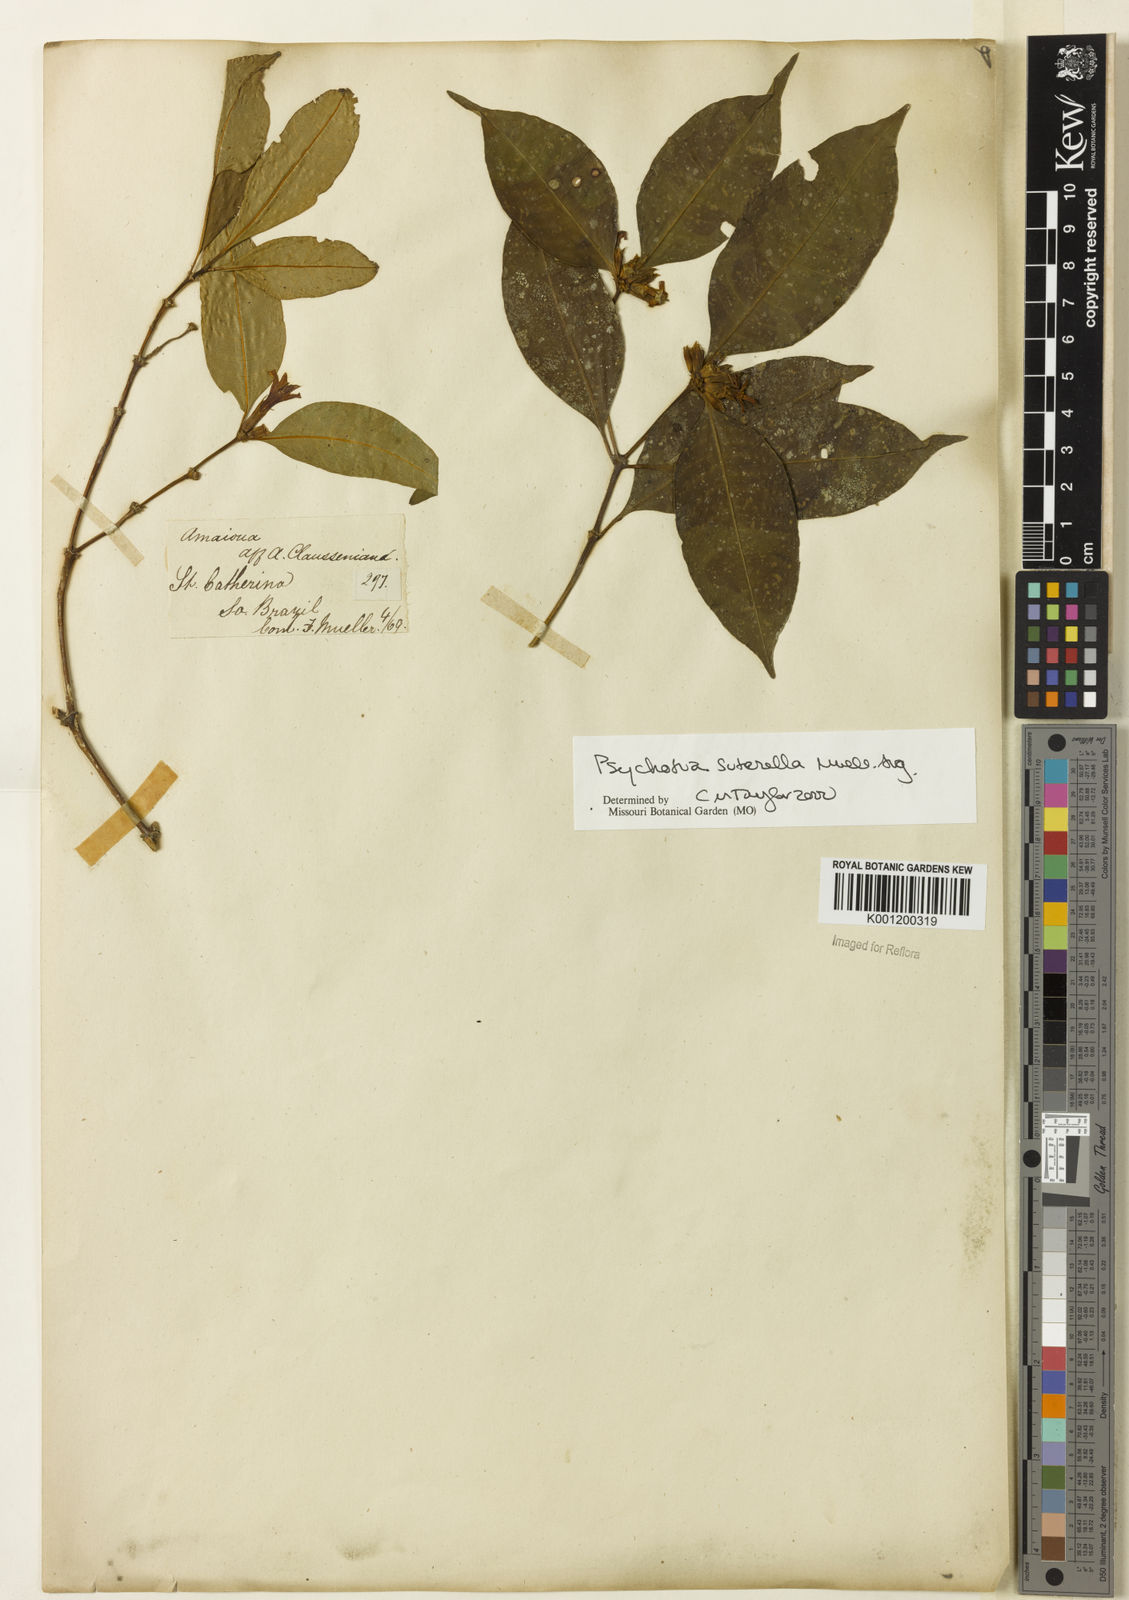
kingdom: Plantae
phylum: Tracheophyta
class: Magnoliopsida
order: Gentianales
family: Rubiaceae
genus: Psychotria
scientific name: Psychotria
